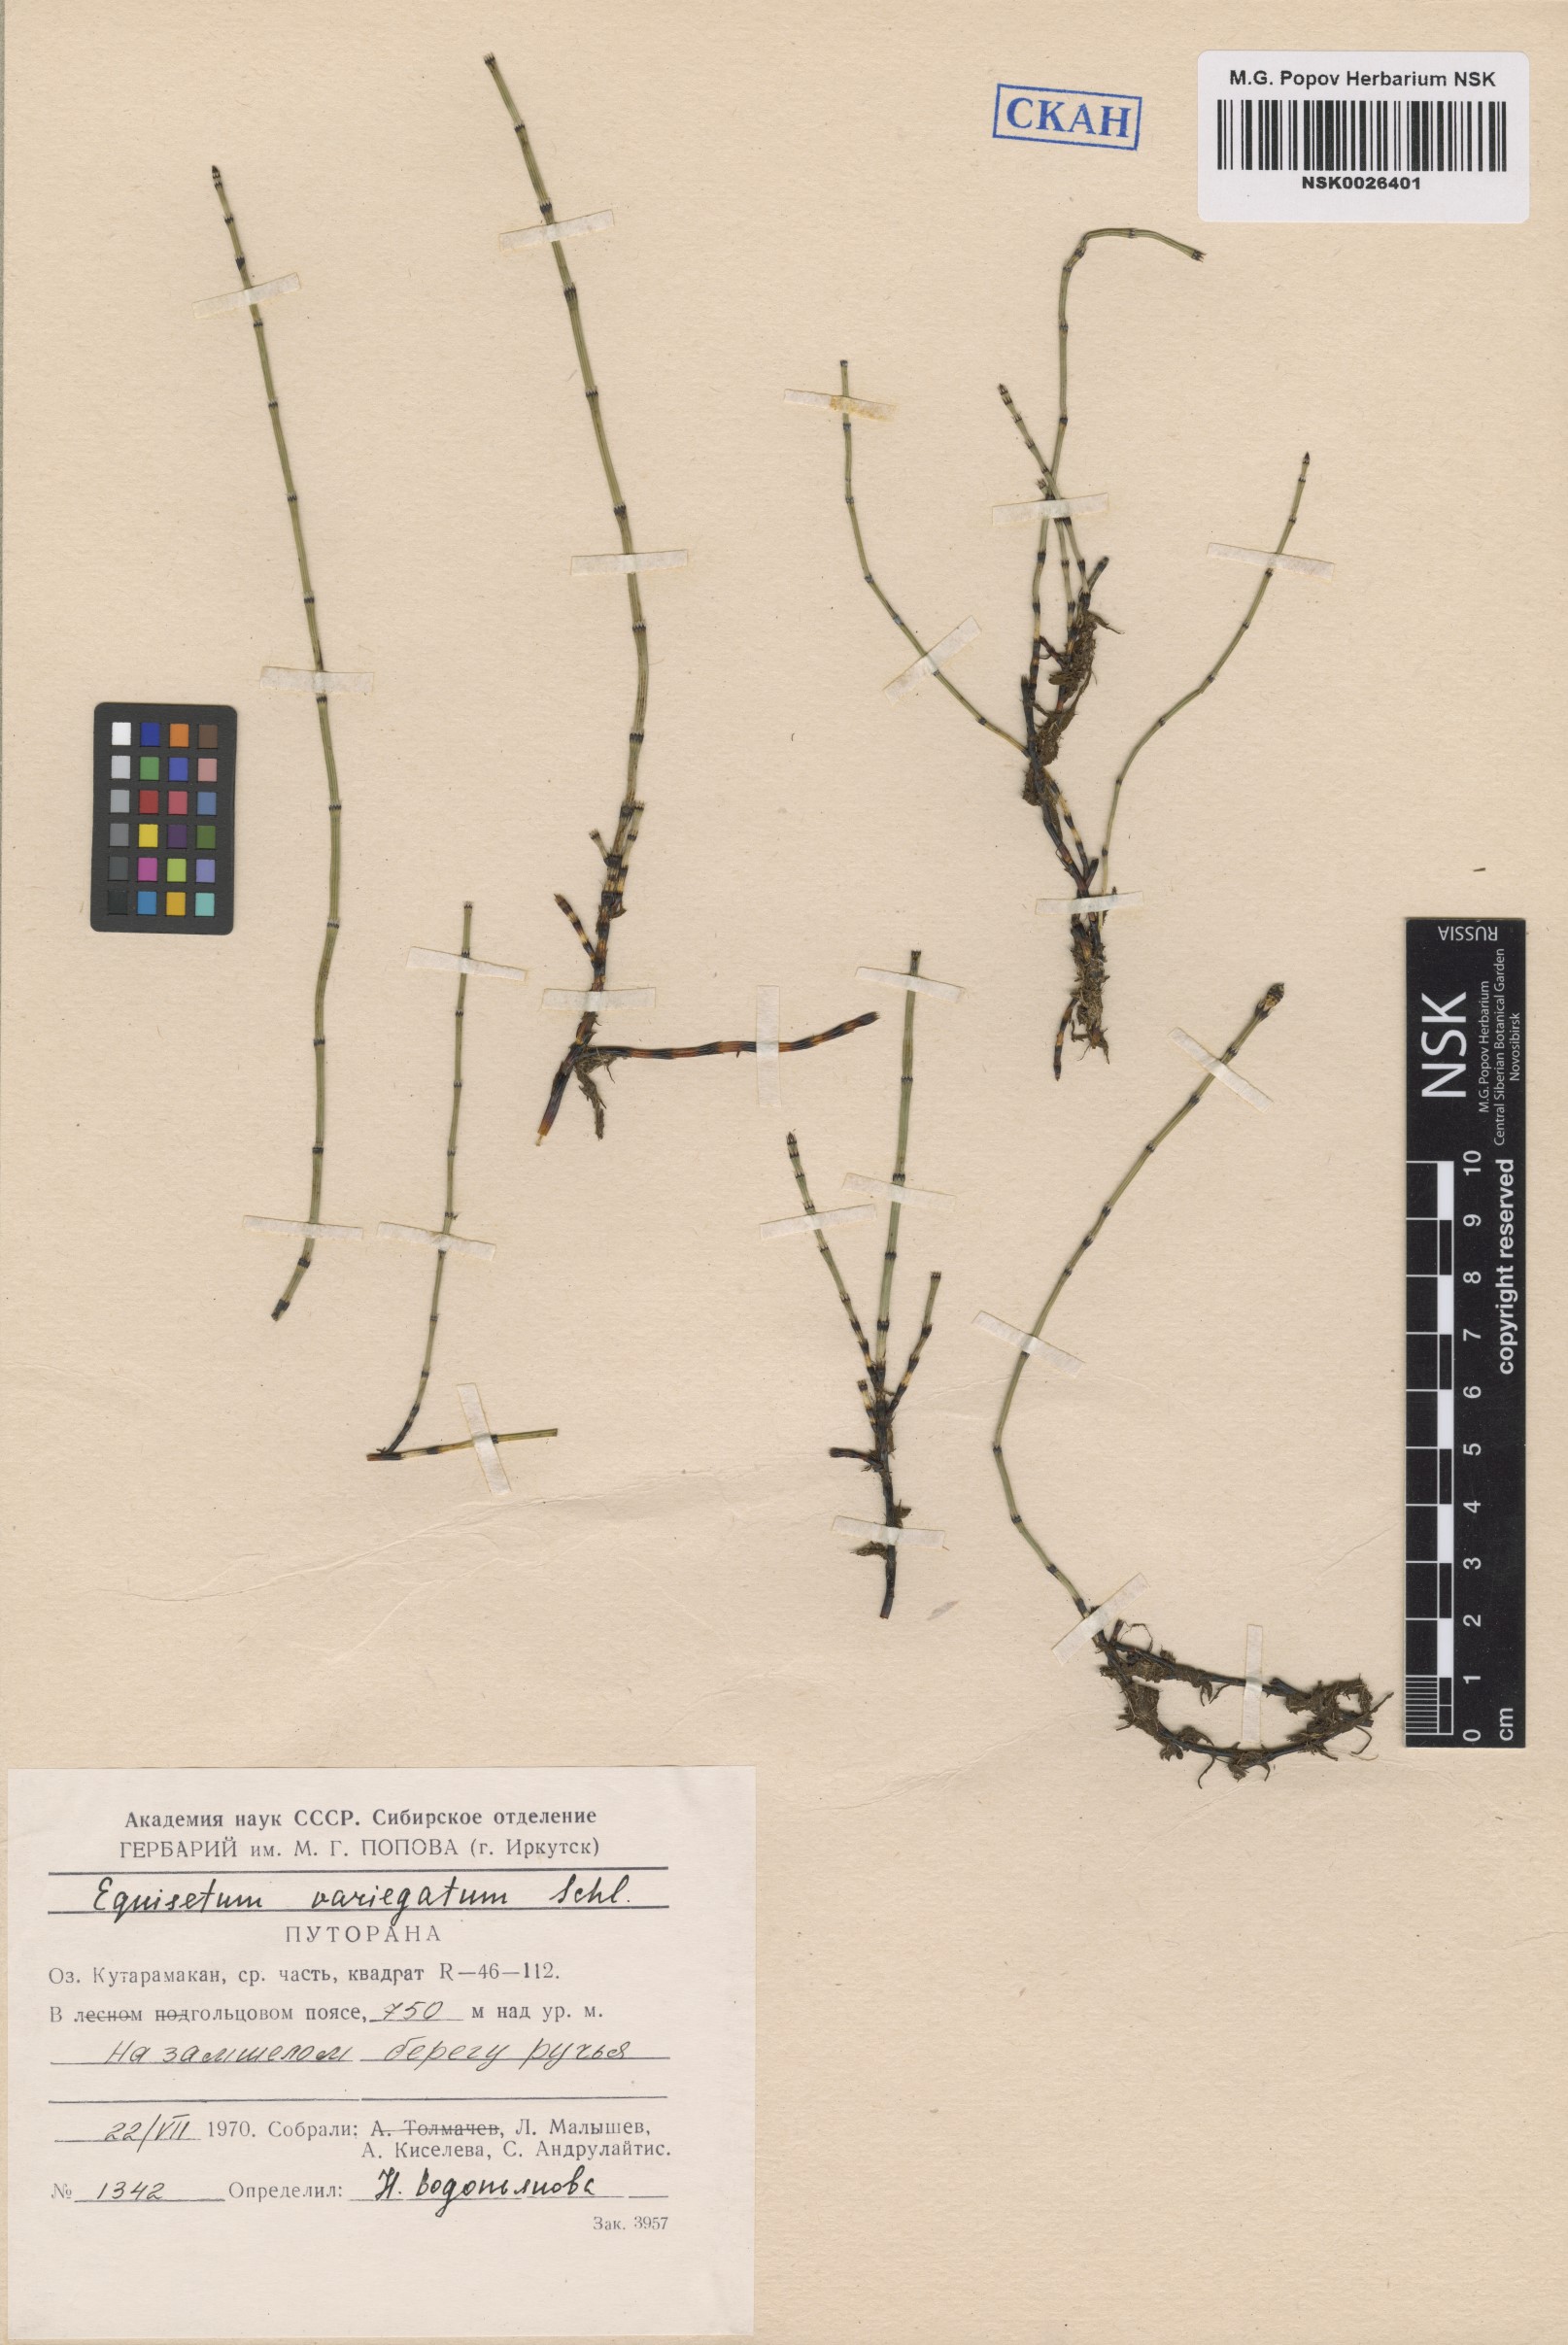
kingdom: Plantae
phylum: Tracheophyta
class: Polypodiopsida
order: Equisetales
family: Equisetaceae
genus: Equisetum
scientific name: Equisetum variegatum
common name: Variegated horsetail
